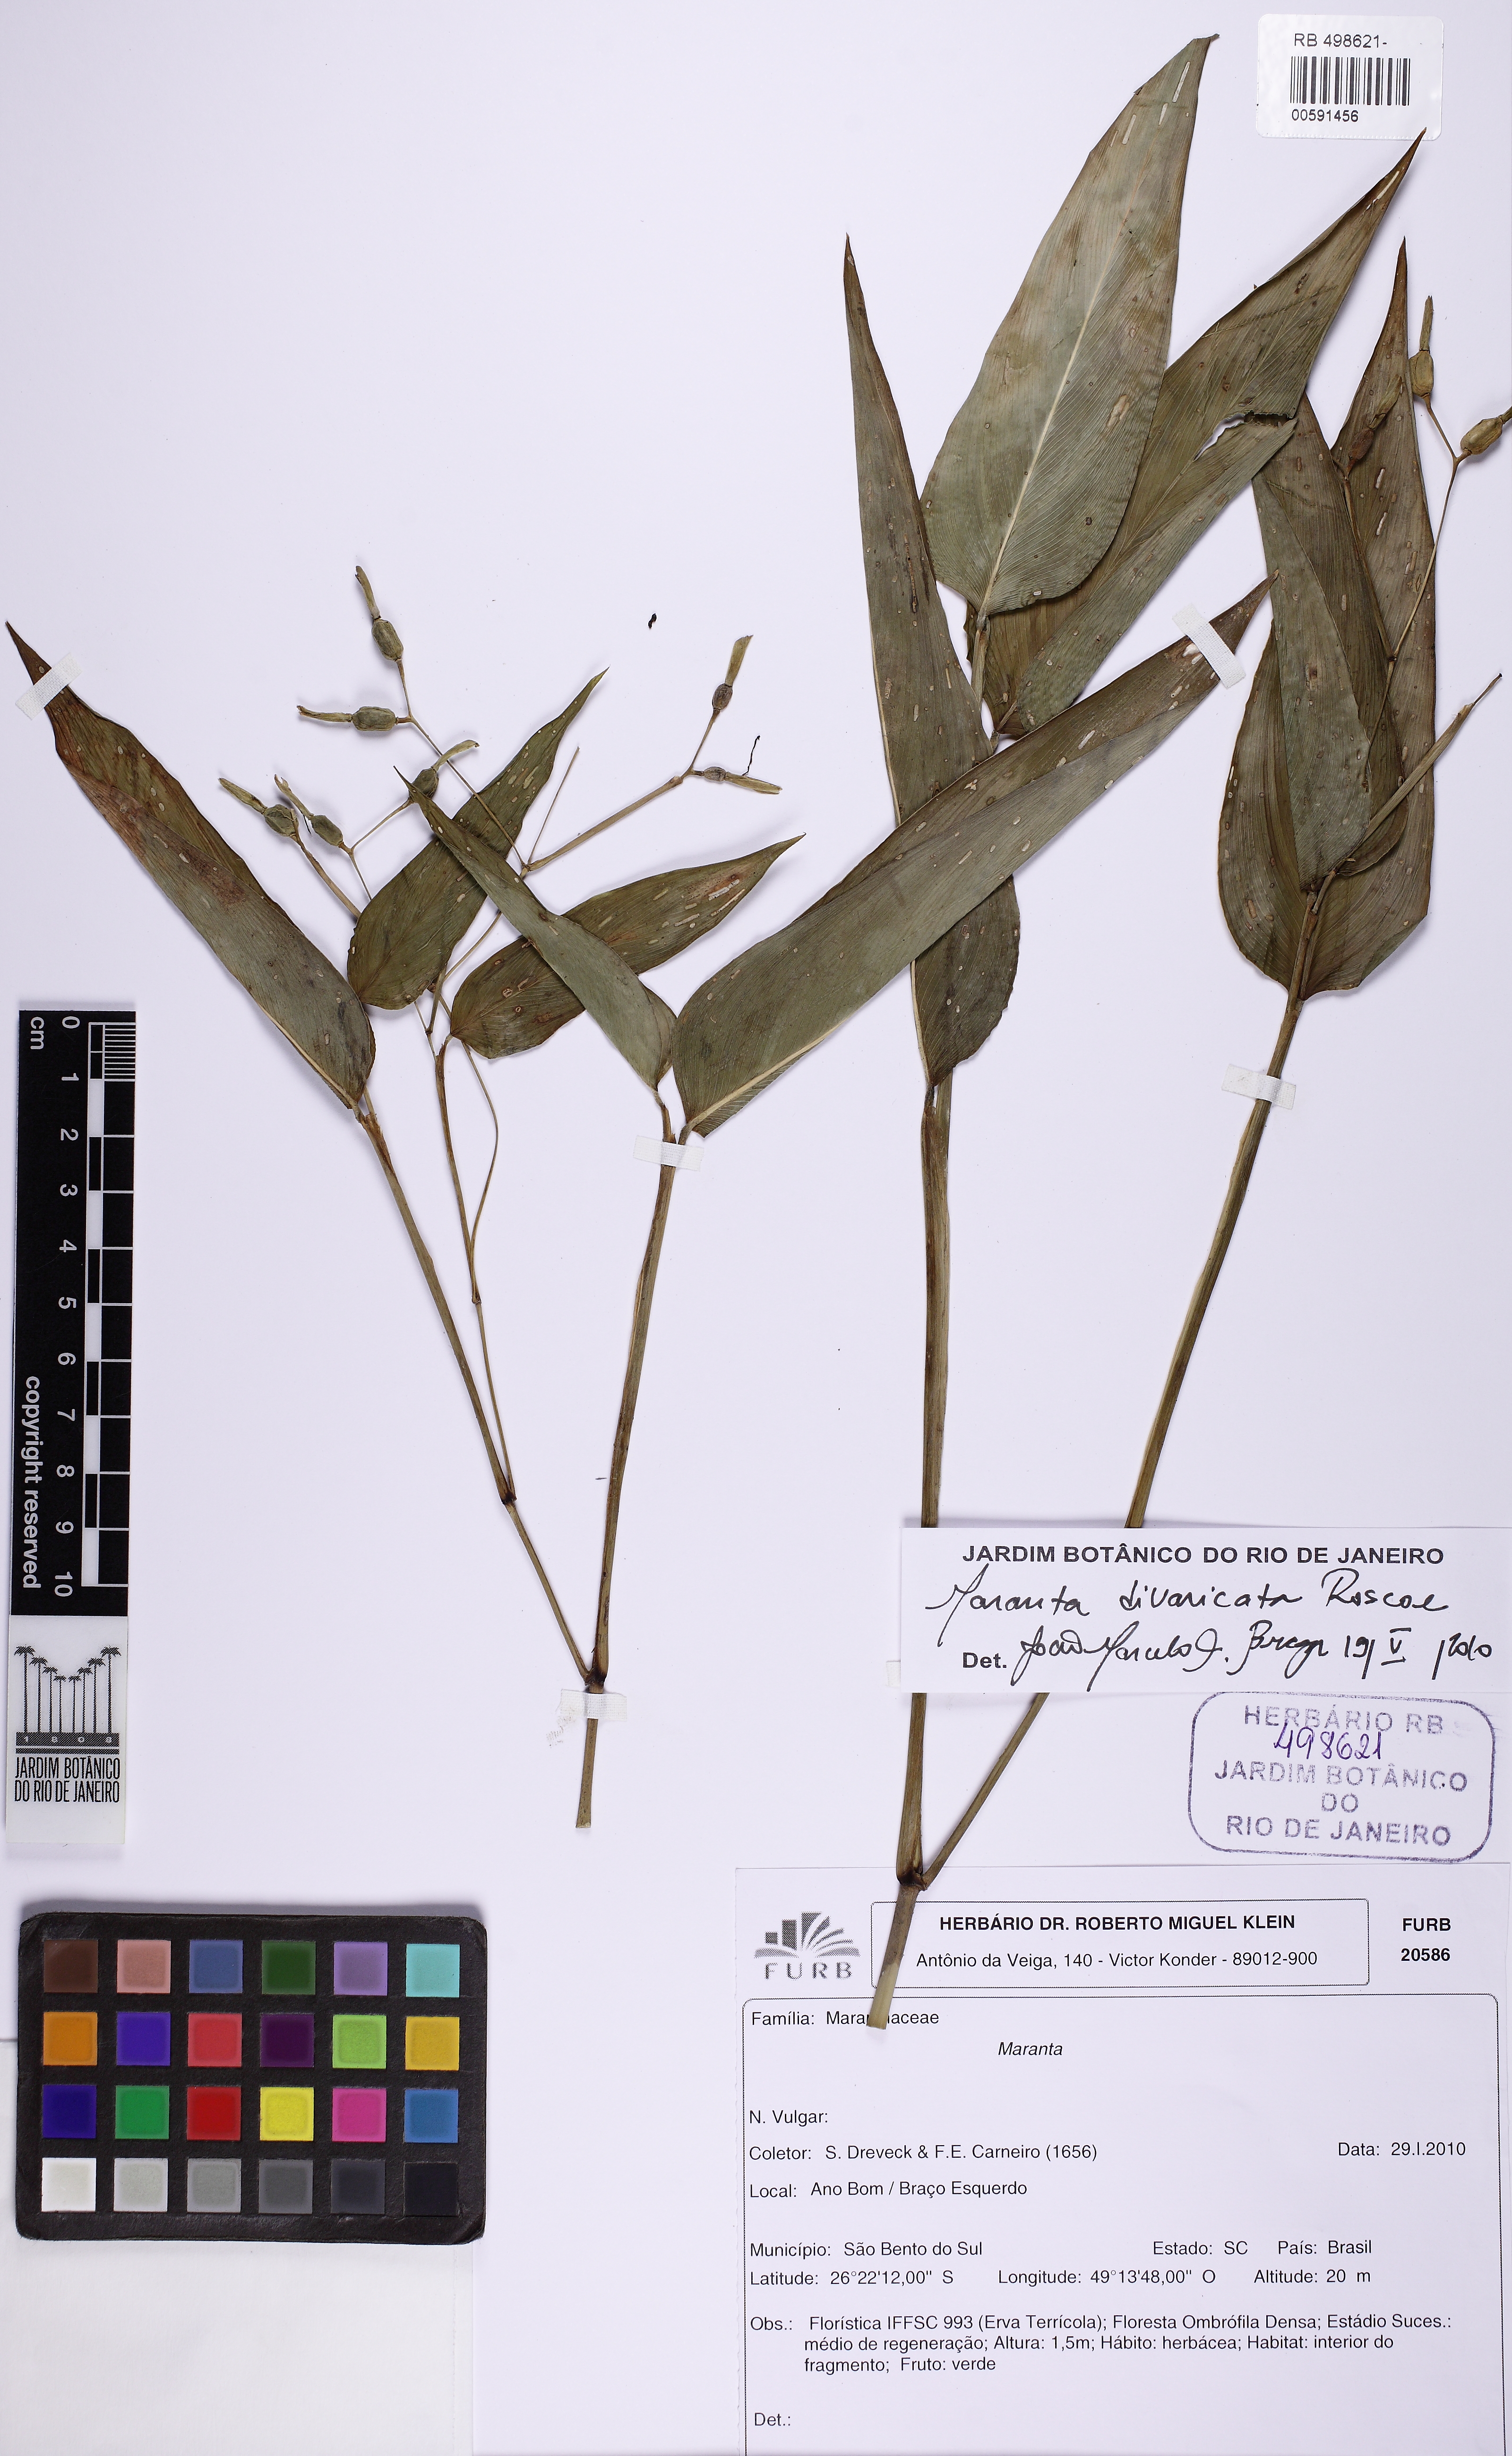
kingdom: Plantae
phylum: Tracheophyta
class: Liliopsida
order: Zingiberales
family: Marantaceae
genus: Maranta
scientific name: Maranta divaricata
